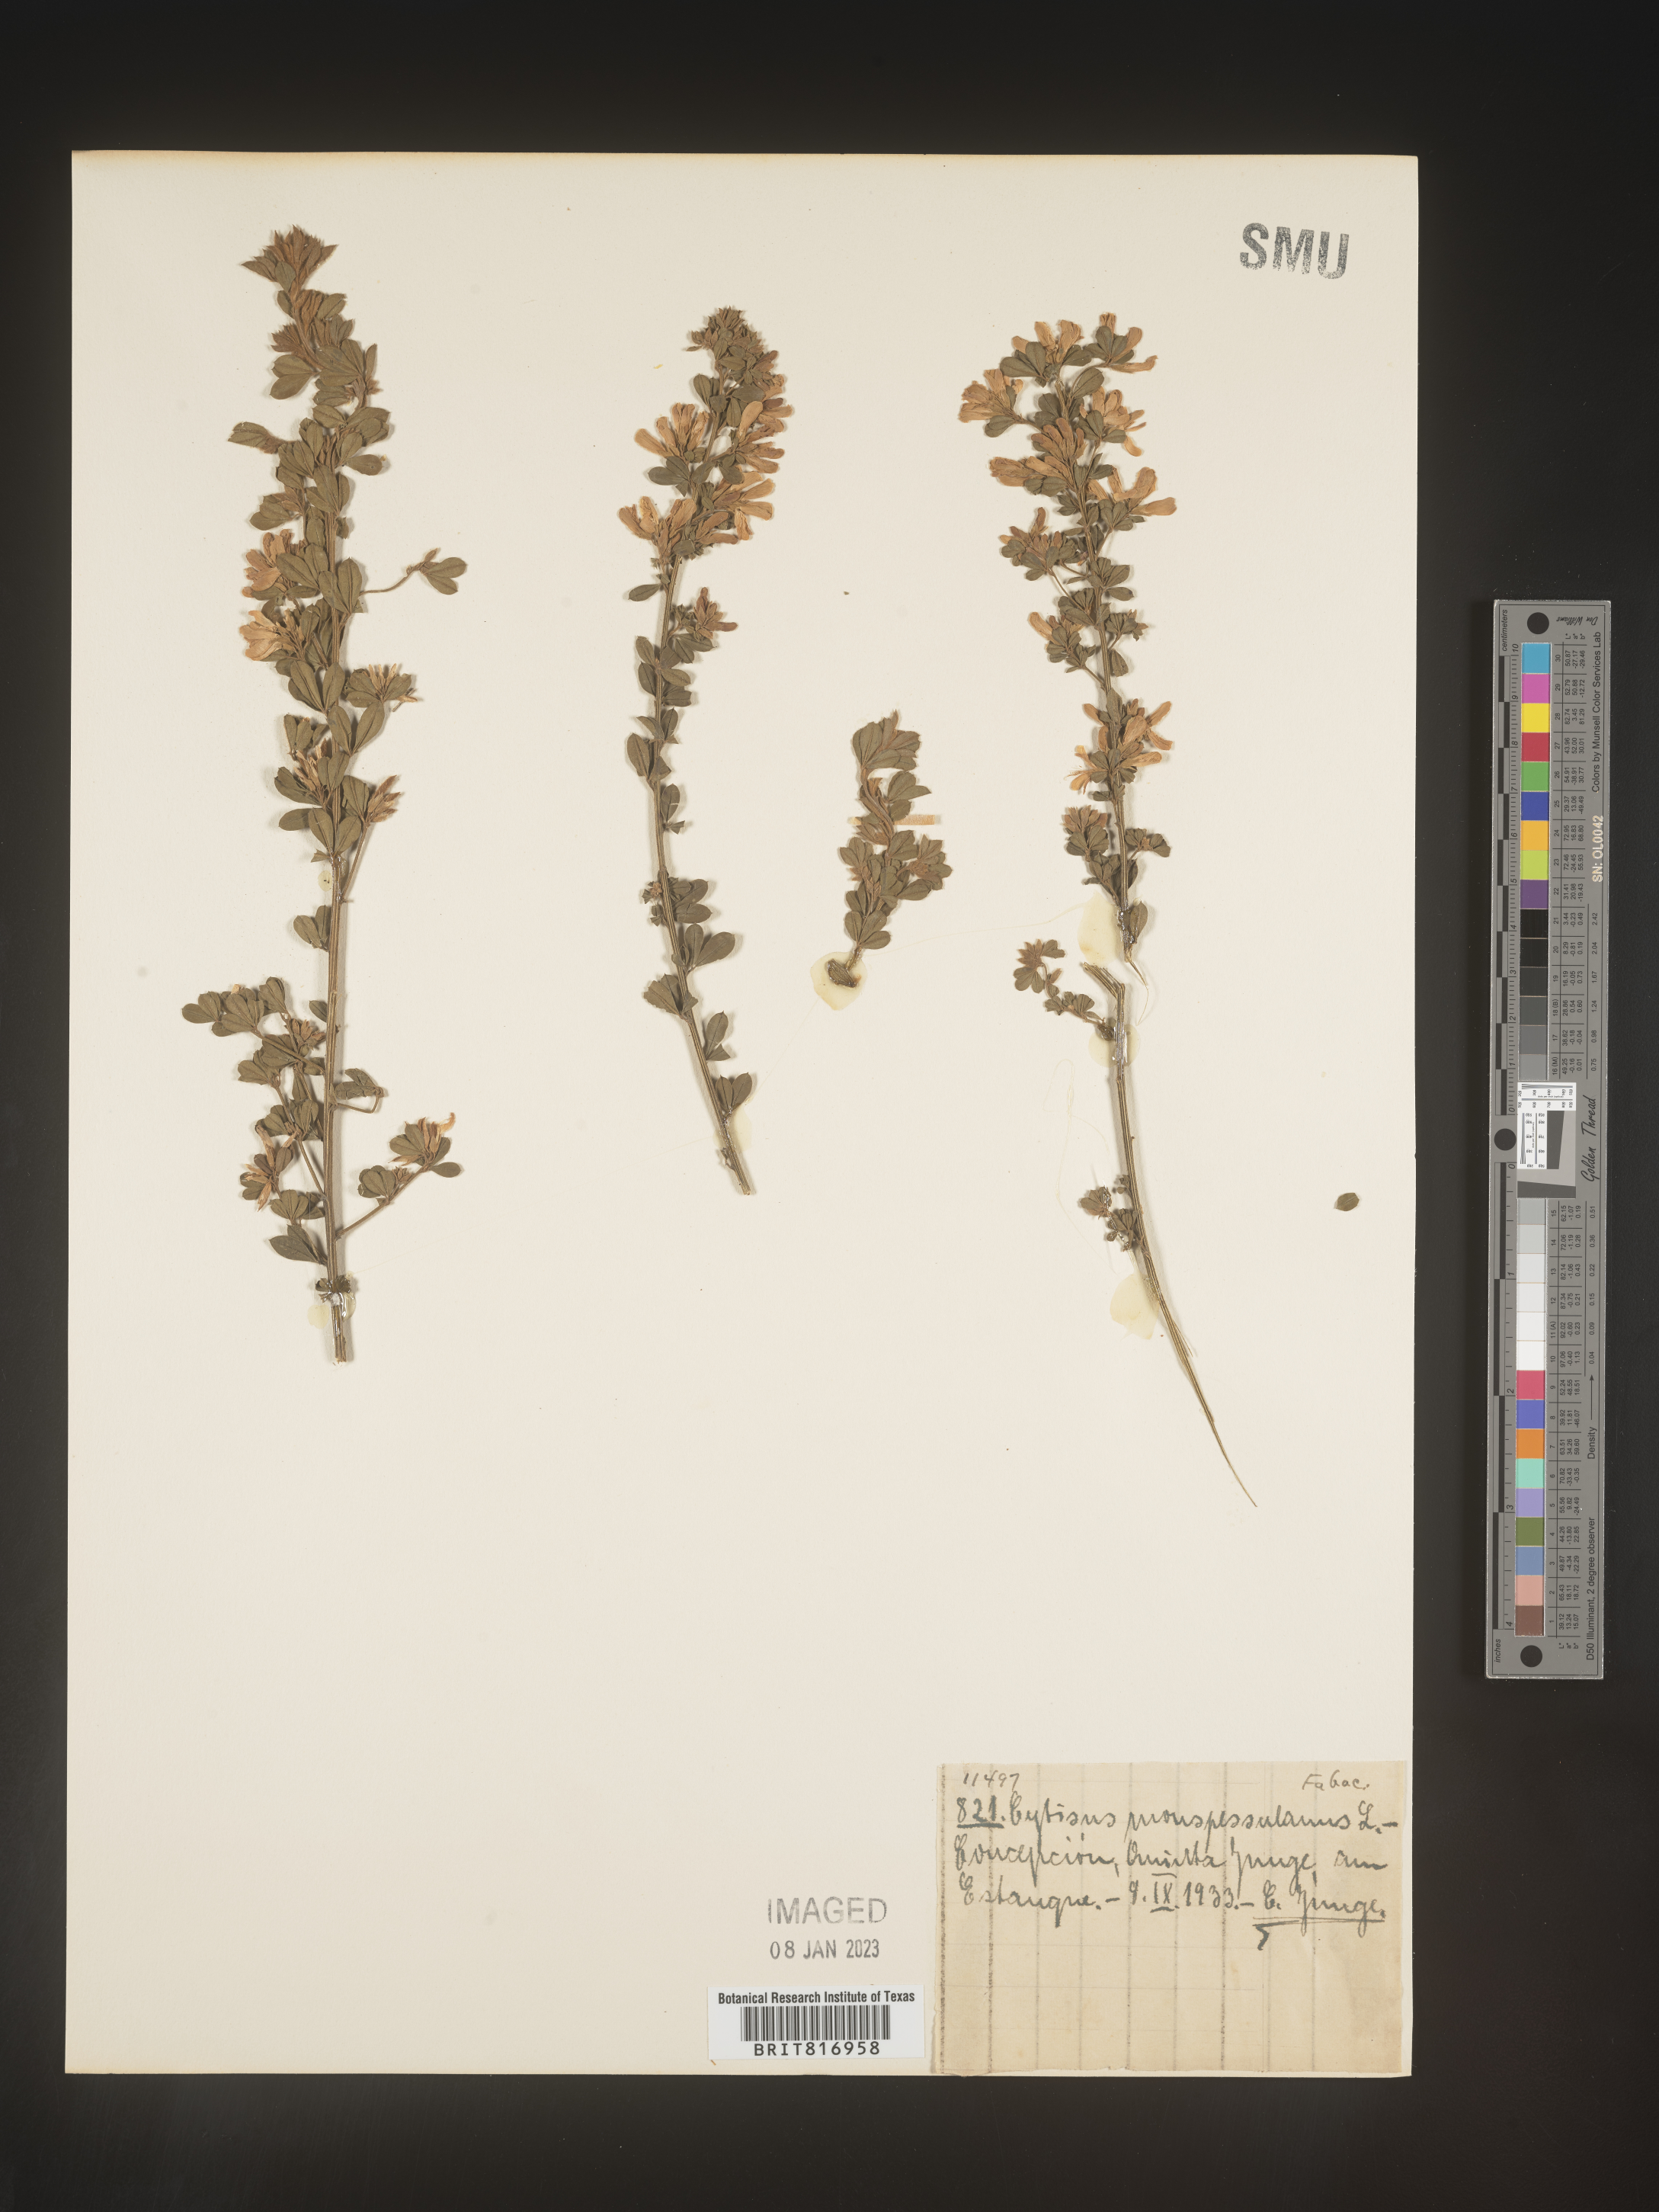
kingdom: Plantae
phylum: Tracheophyta
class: Magnoliopsida
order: Fabales
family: Fabaceae
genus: Cytisus
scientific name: Cytisus
